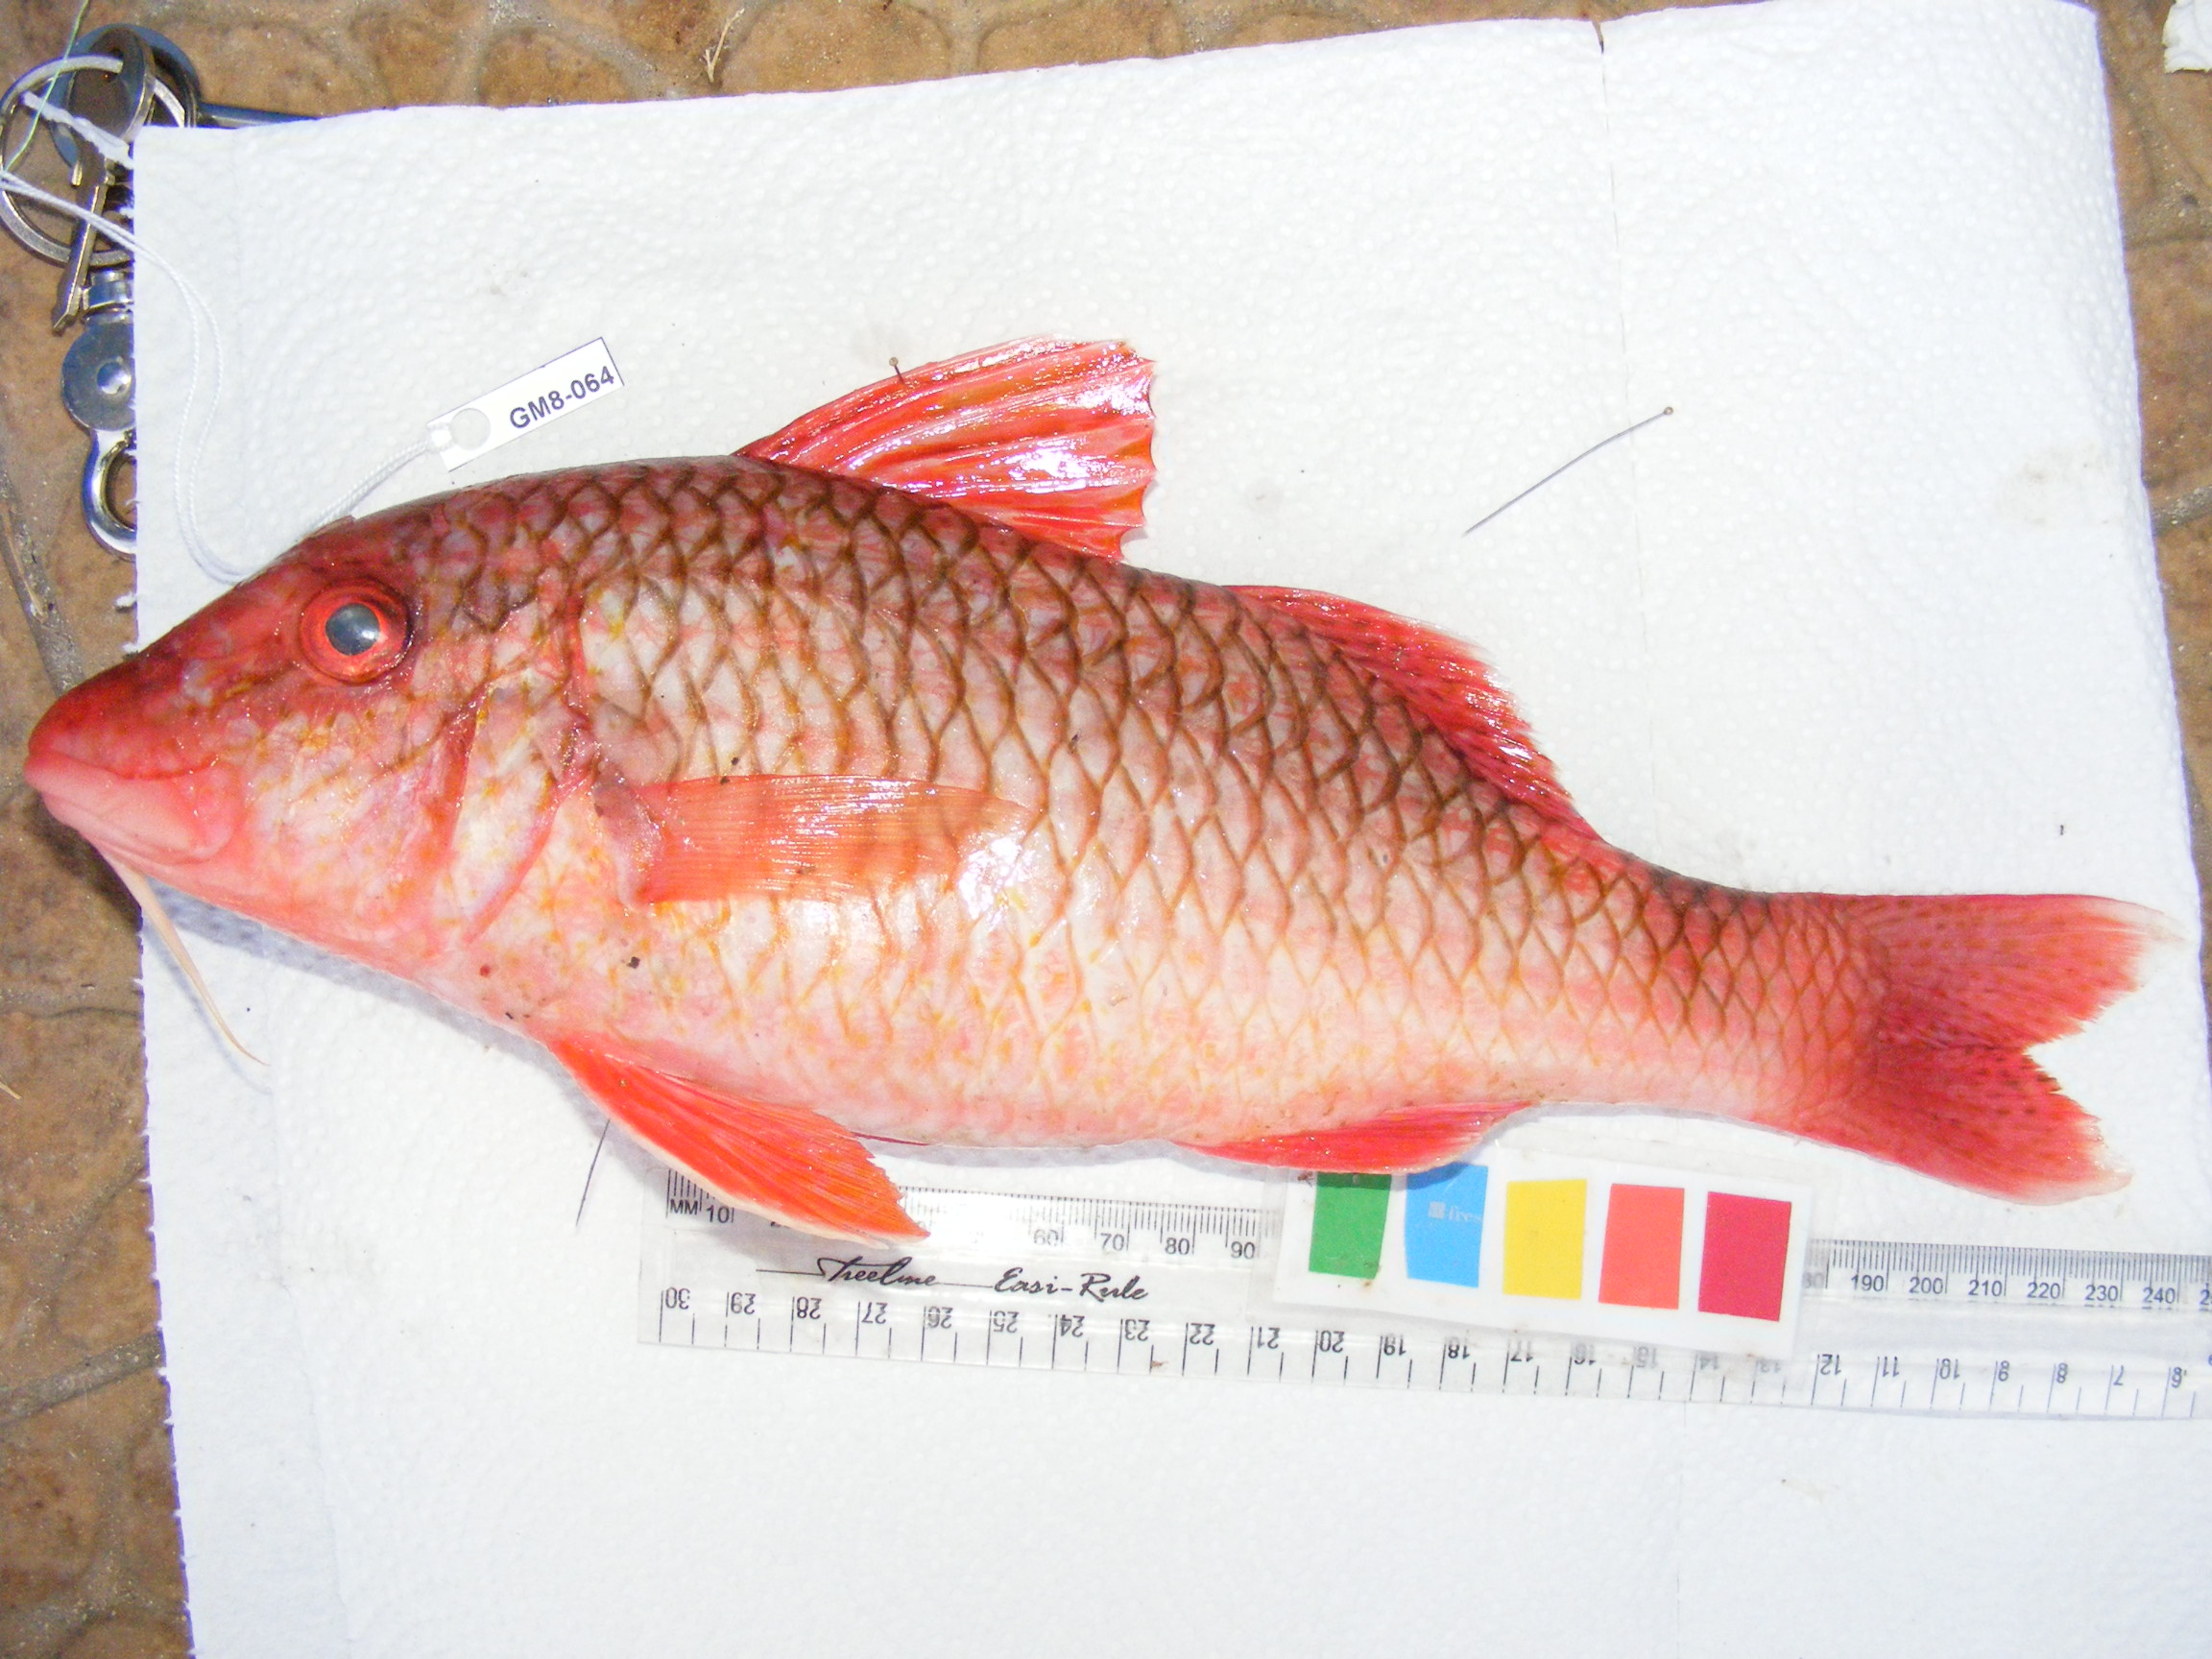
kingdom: Animalia
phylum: Chordata
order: Perciformes
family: Mullidae
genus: Parupeneus
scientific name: Parupeneus rubescens
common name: Rosy goatfish
